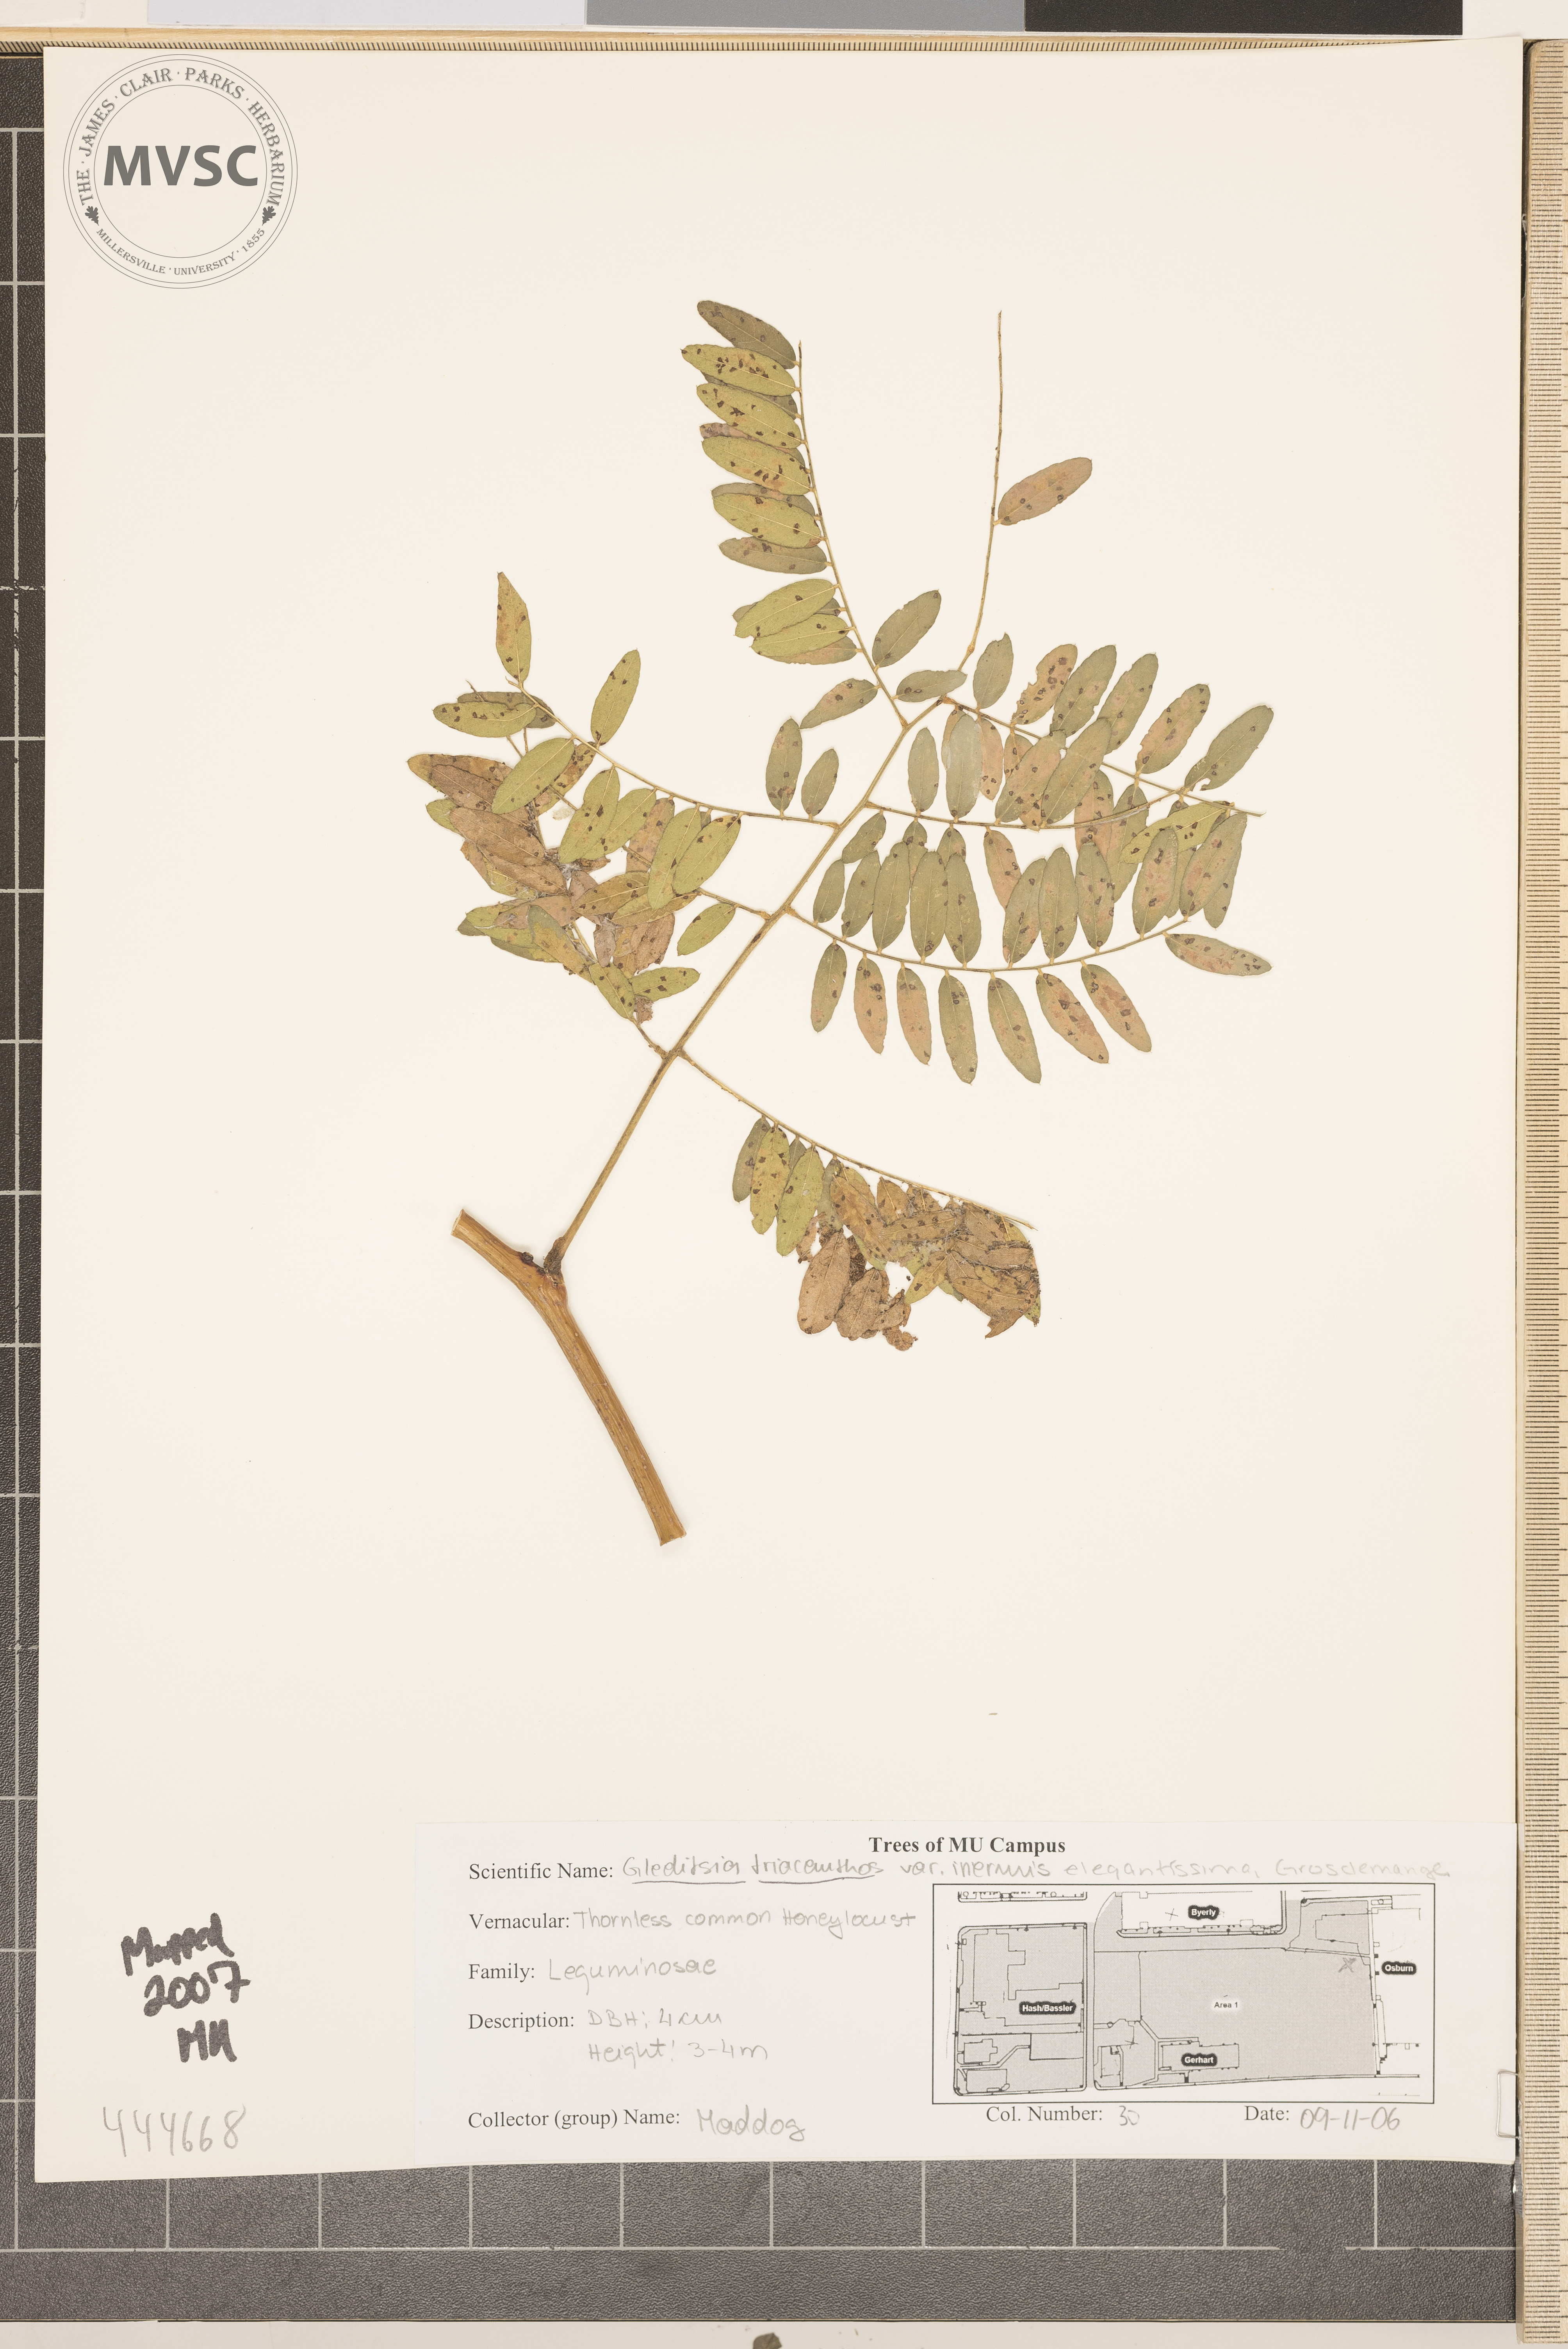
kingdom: Plantae
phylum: Tracheophyta
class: Magnoliopsida
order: Fabales
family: Fabaceae
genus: Gleditsia
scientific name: Gleditsia triacanthos
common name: Common honeylocust
